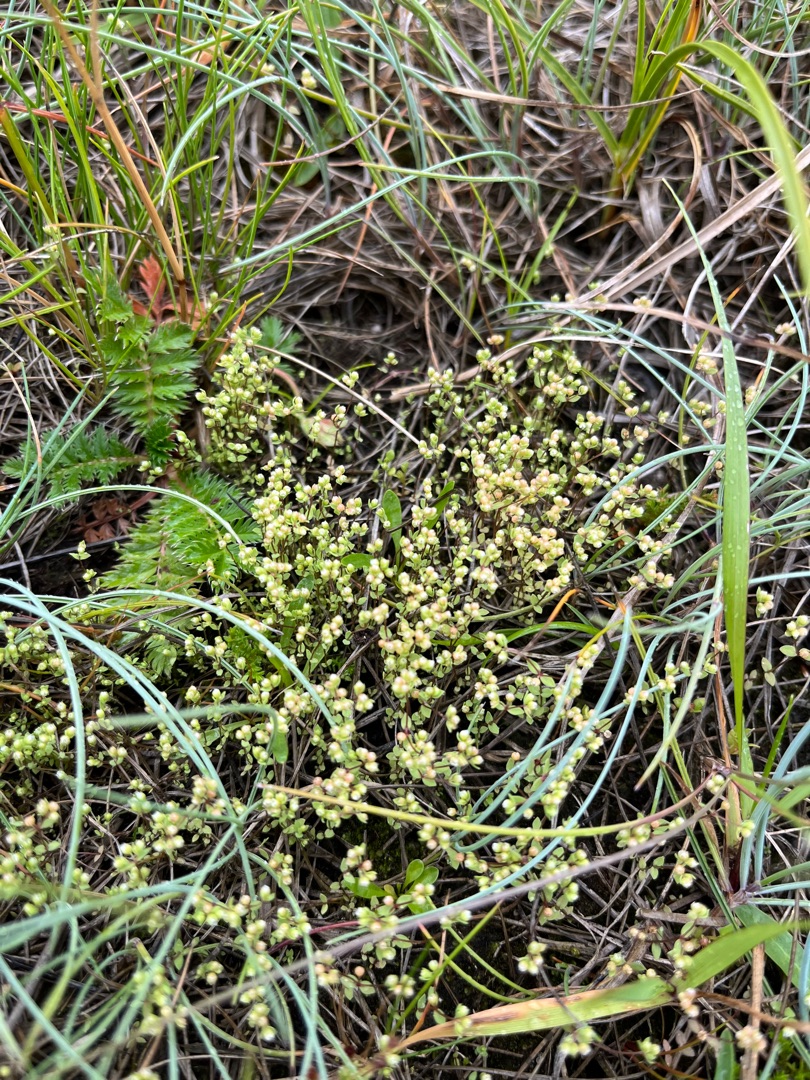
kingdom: Plantae
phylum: Tracheophyta
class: Magnoliopsida
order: Malpighiales
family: Linaceae
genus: Radiola
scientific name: Radiola linoides
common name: Tusindfrø
